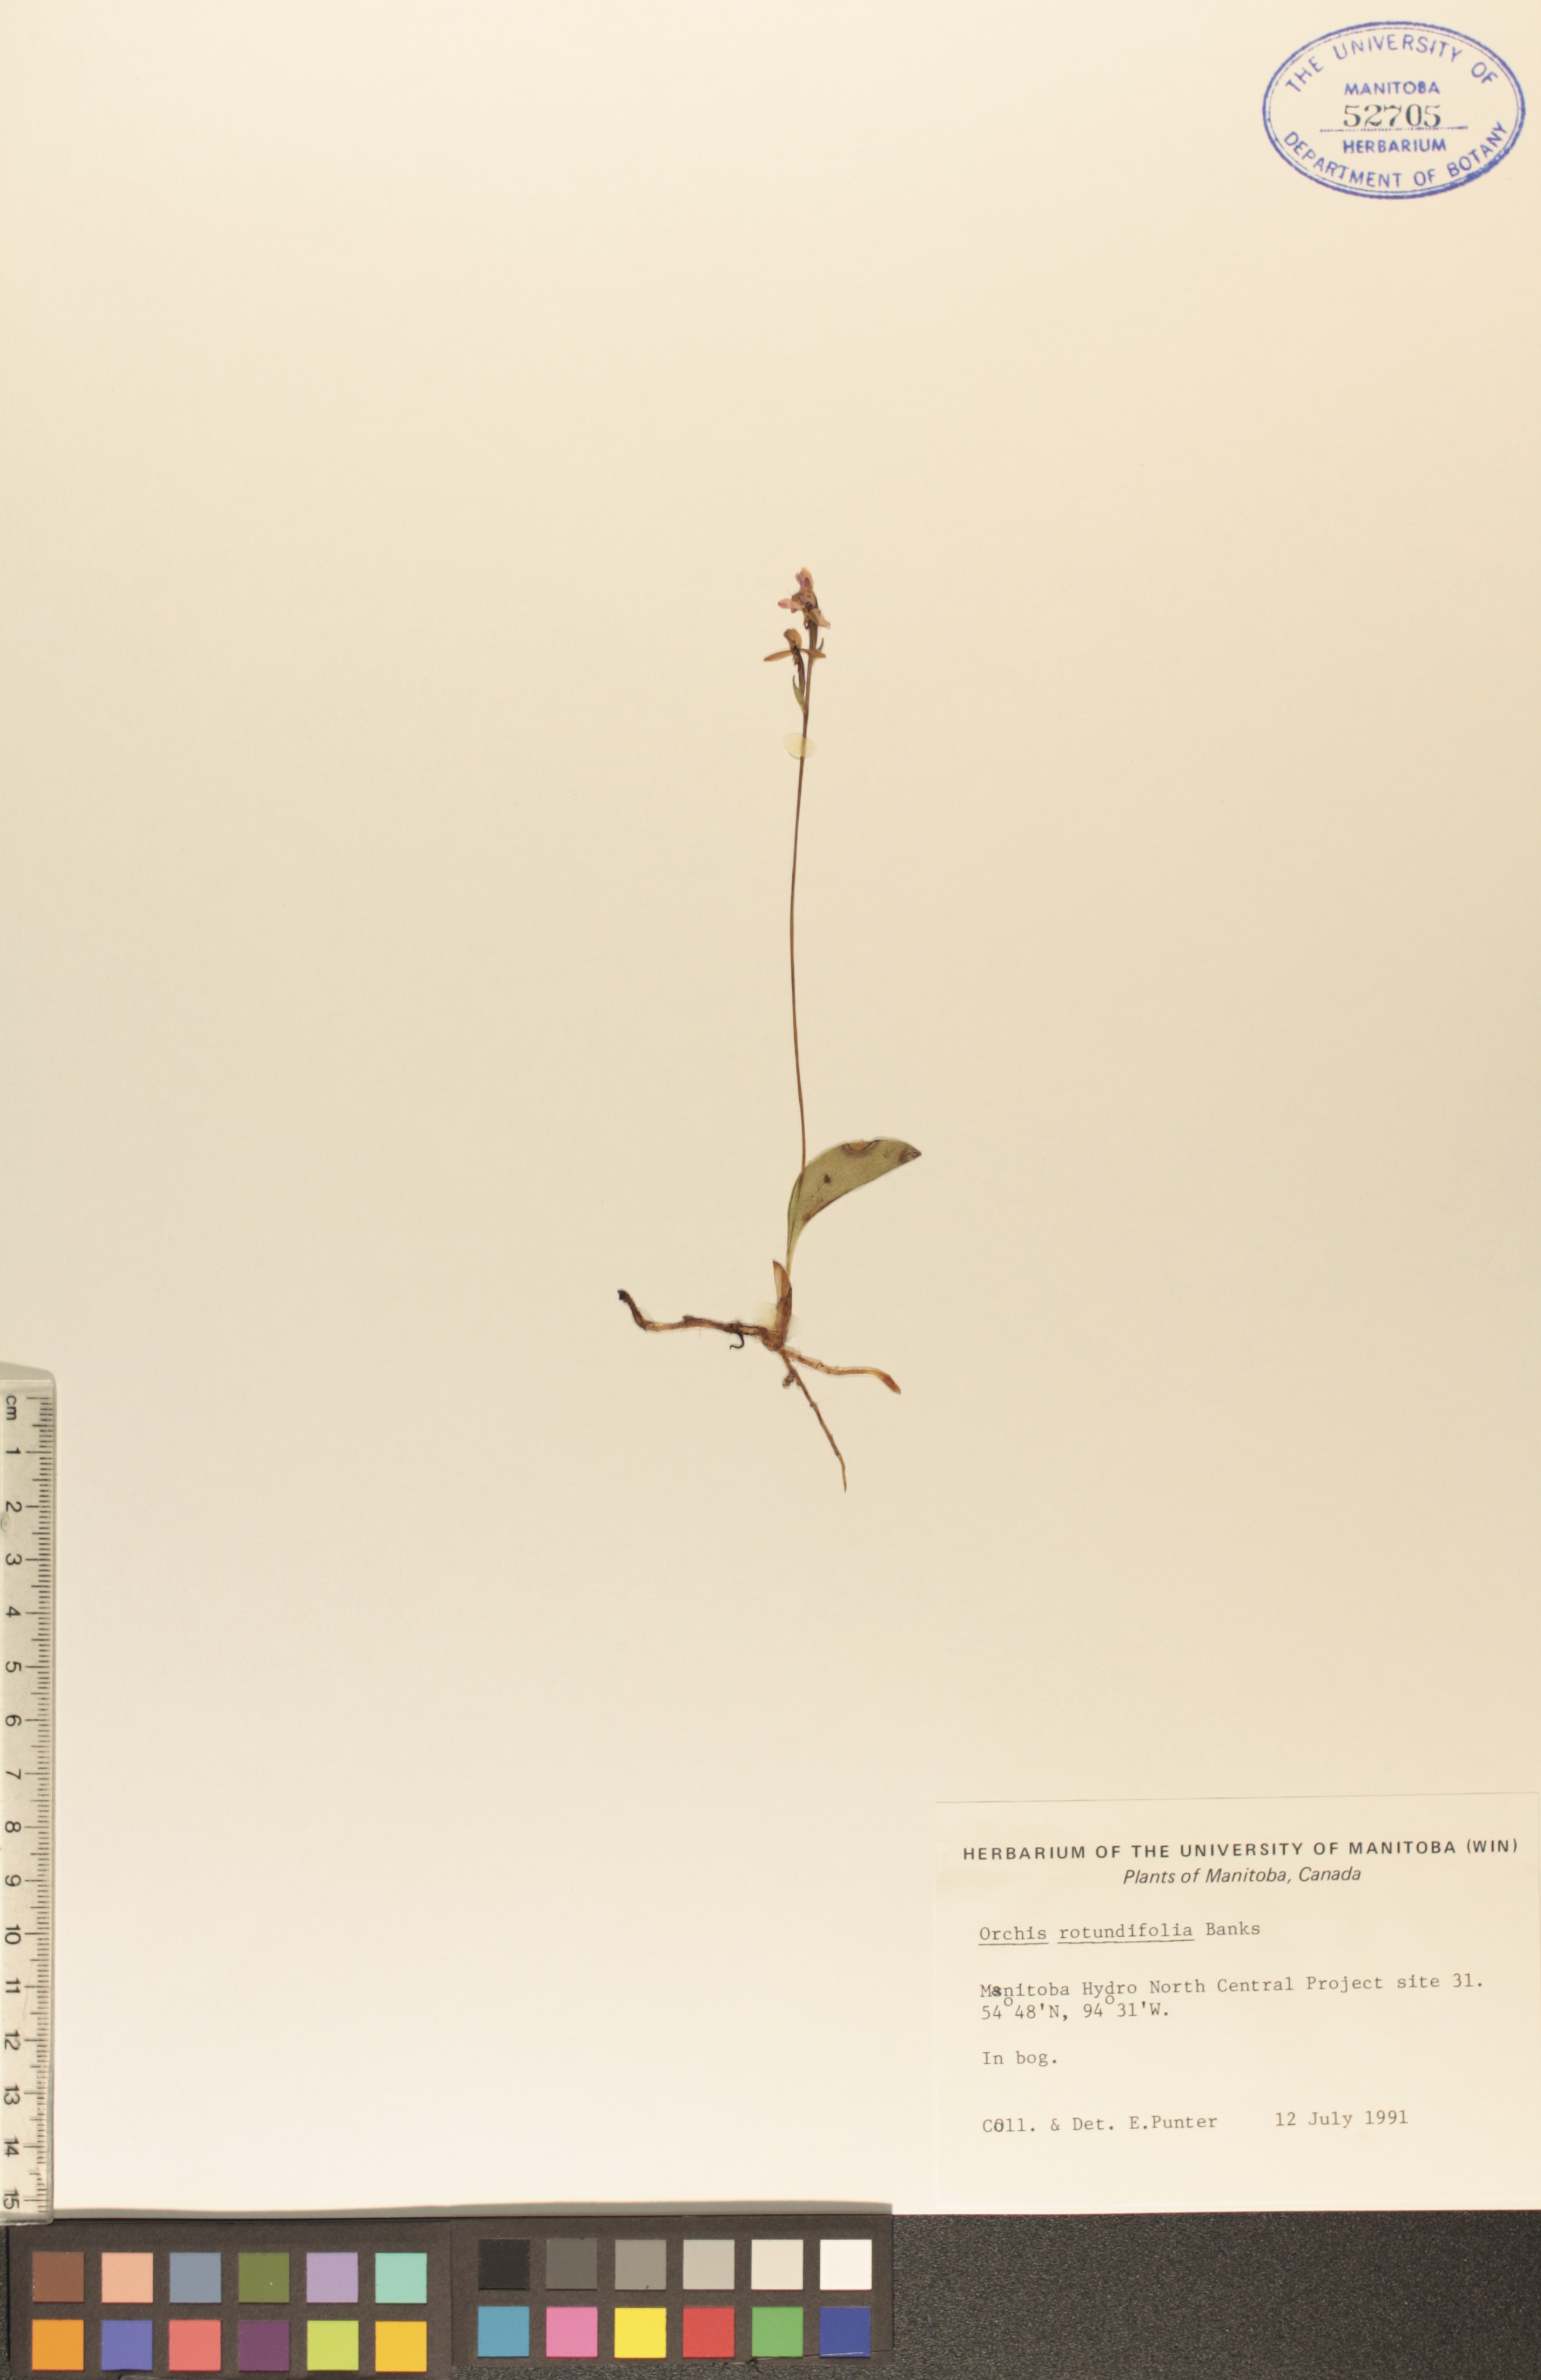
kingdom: Plantae
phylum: Tracheophyta
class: Liliopsida
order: Asparagales
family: Orchidaceae
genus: Galearis
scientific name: Galearis rotundifolia
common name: One-leaved orchis
